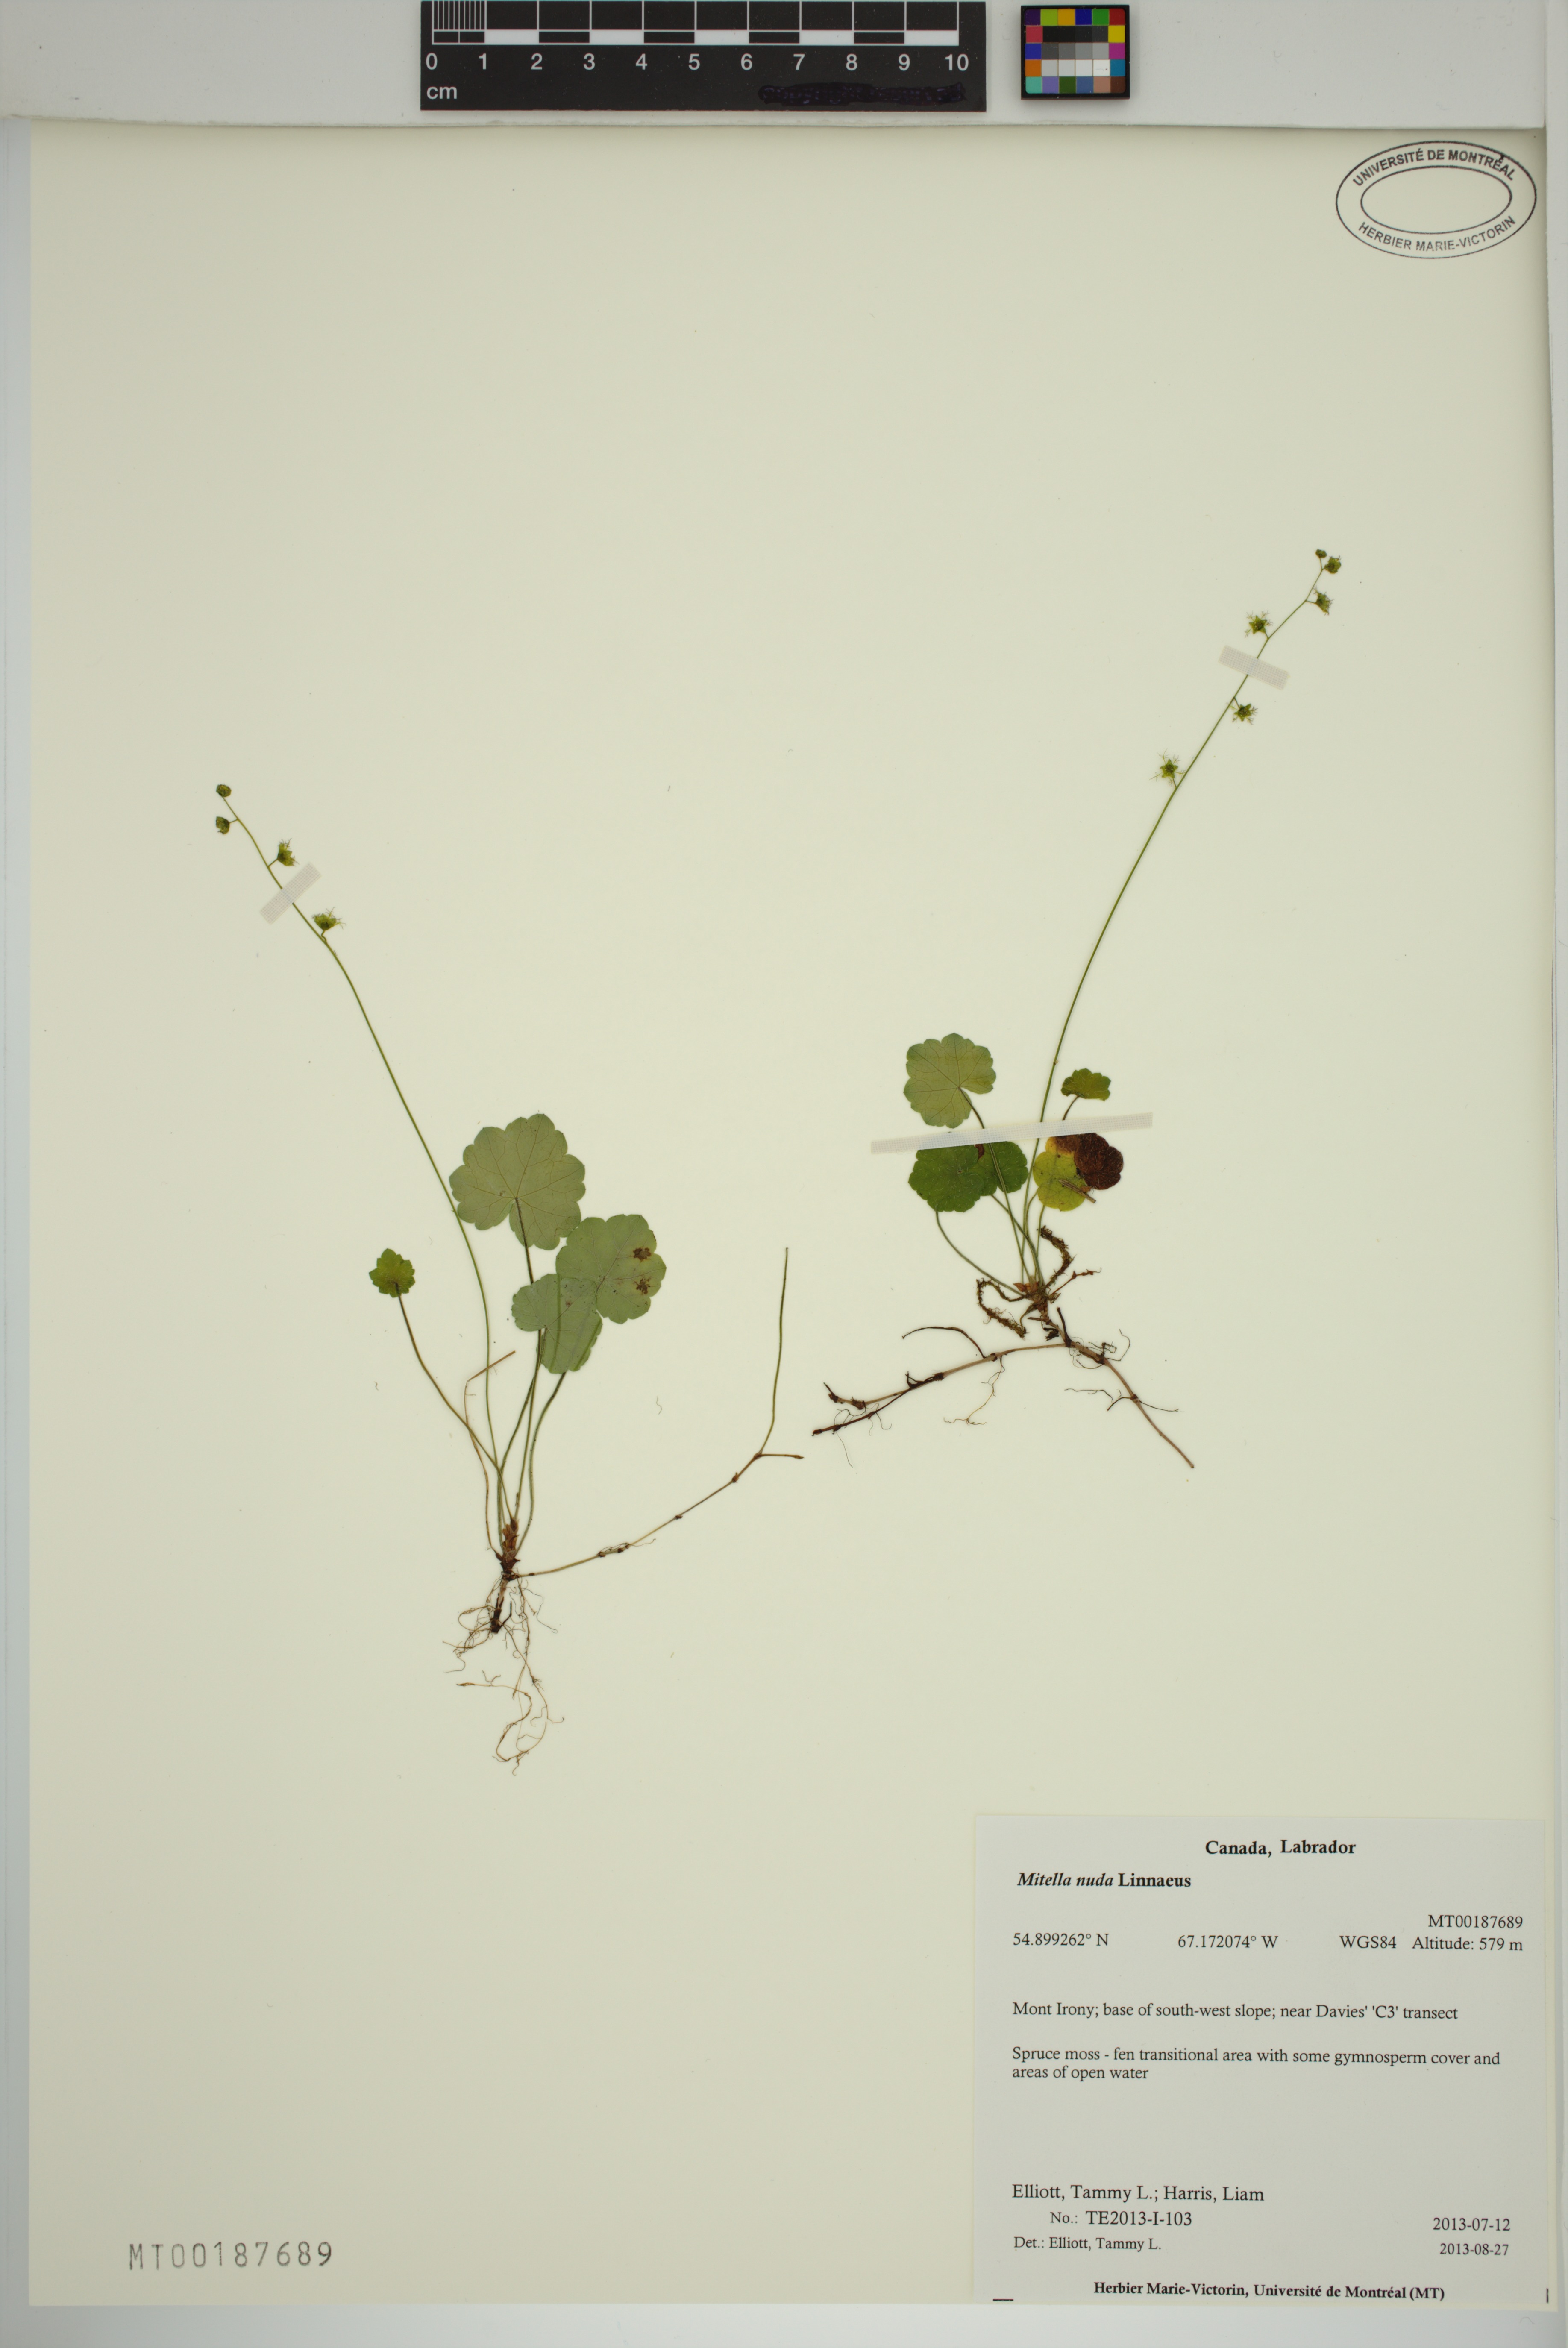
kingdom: Plantae
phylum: Tracheophyta
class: Magnoliopsida
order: Saxifragales
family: Saxifragaceae
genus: Mitella
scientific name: Mitella nuda
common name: Bare-stemmed bishop's-cap
